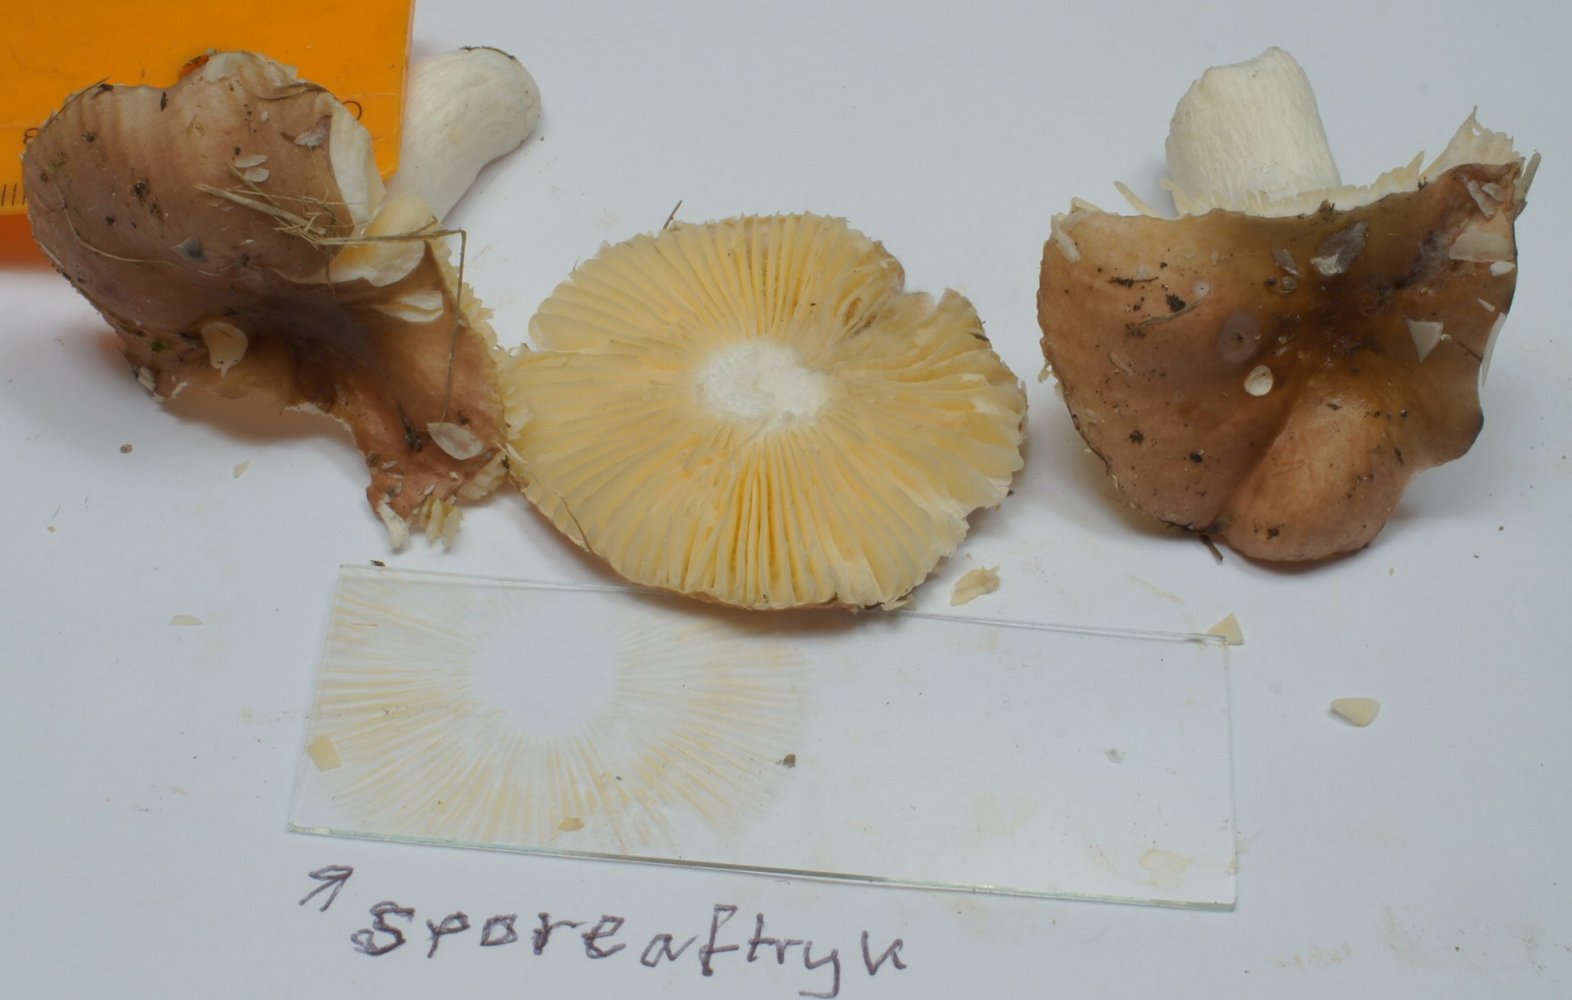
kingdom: Fungi
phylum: Basidiomycota
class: Agaricomycetes
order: Russulales
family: Russulaceae
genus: Russula
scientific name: Russula cessans
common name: fyrre-skørhat
